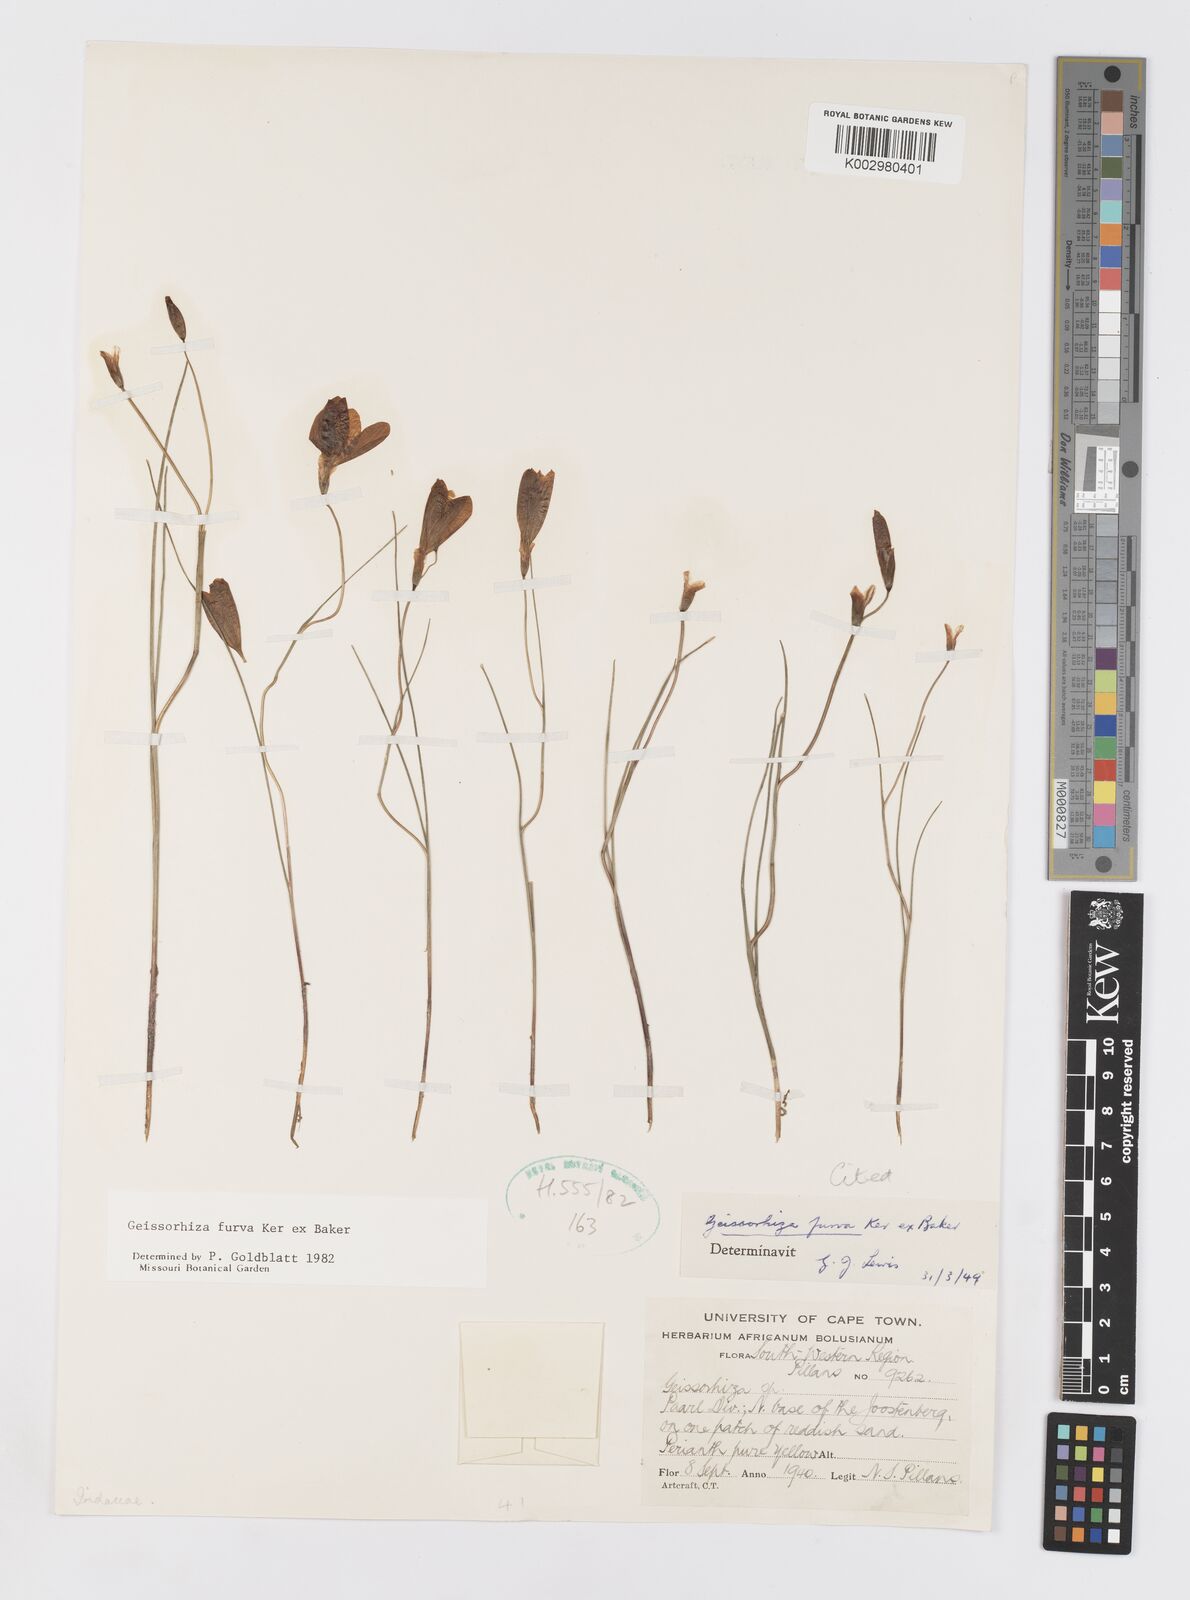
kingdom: Plantae
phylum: Tracheophyta
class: Liliopsida
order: Asparagales
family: Iridaceae
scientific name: Iridaceae
